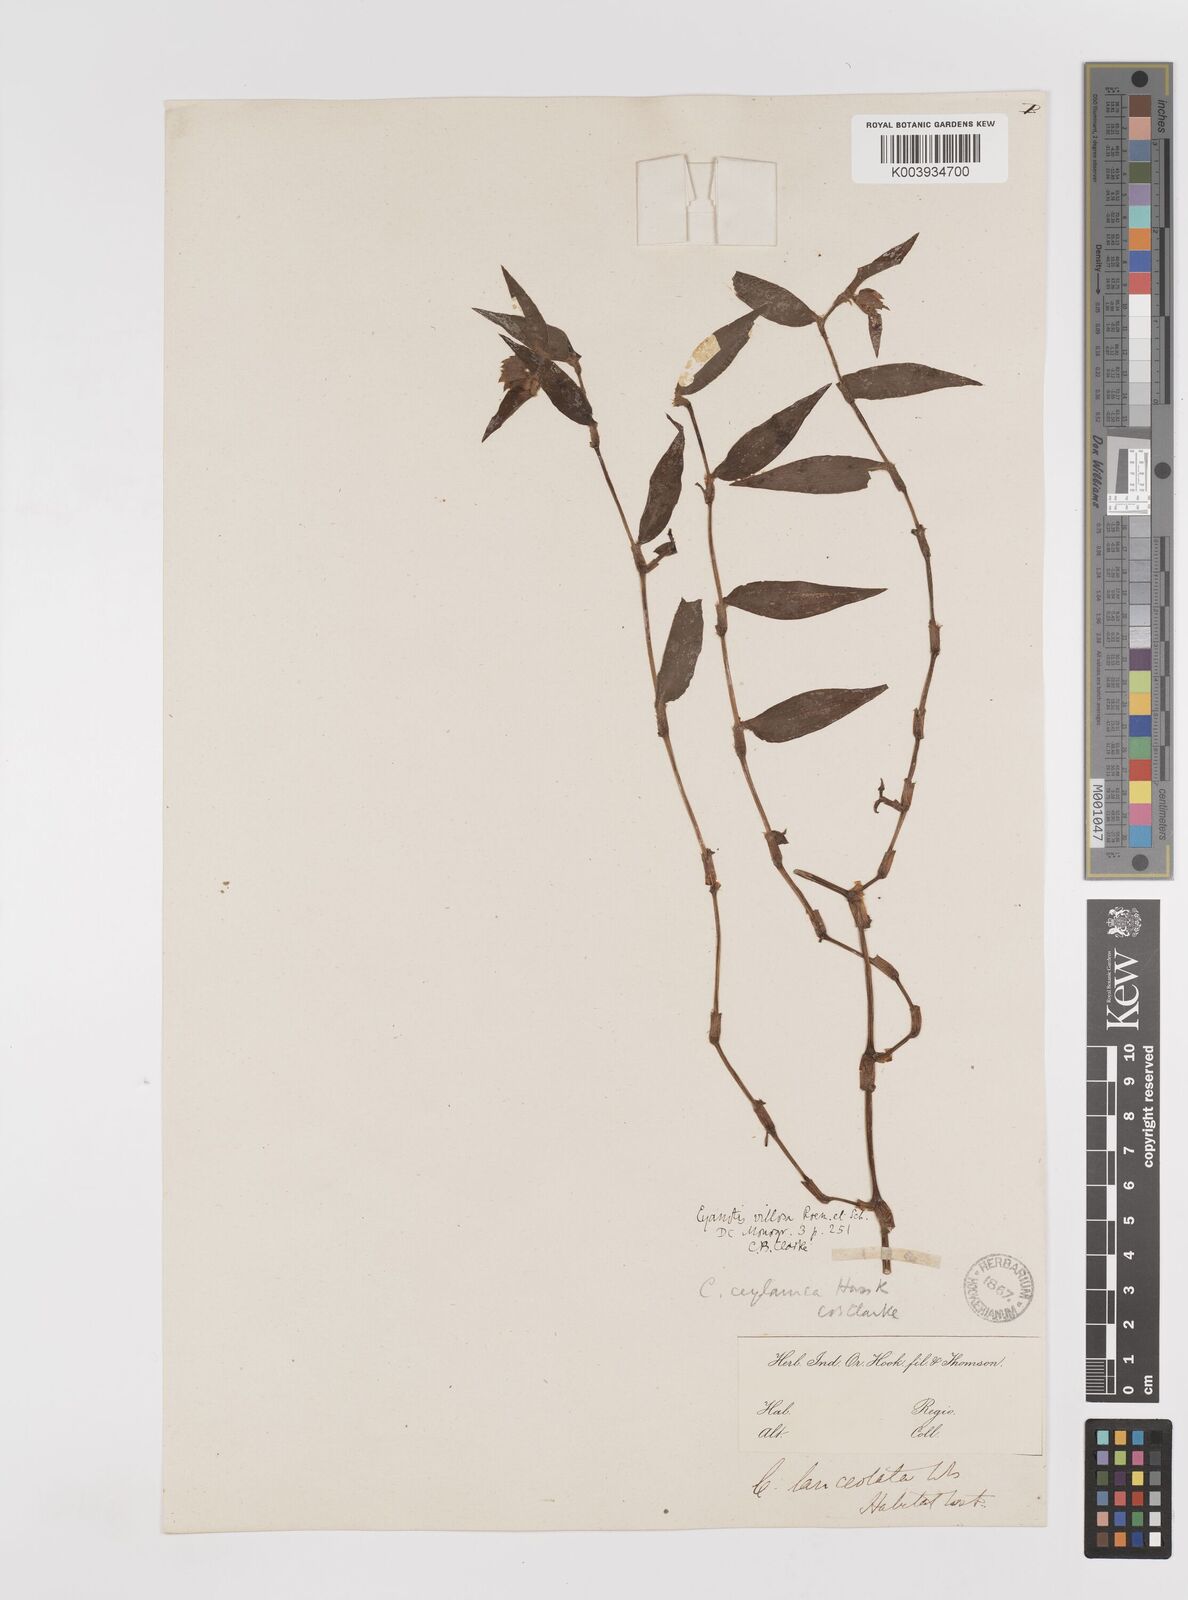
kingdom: Plantae
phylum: Tracheophyta
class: Liliopsida
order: Commelinales
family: Commelinaceae
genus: Cyanotis
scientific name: Cyanotis ceylanica
